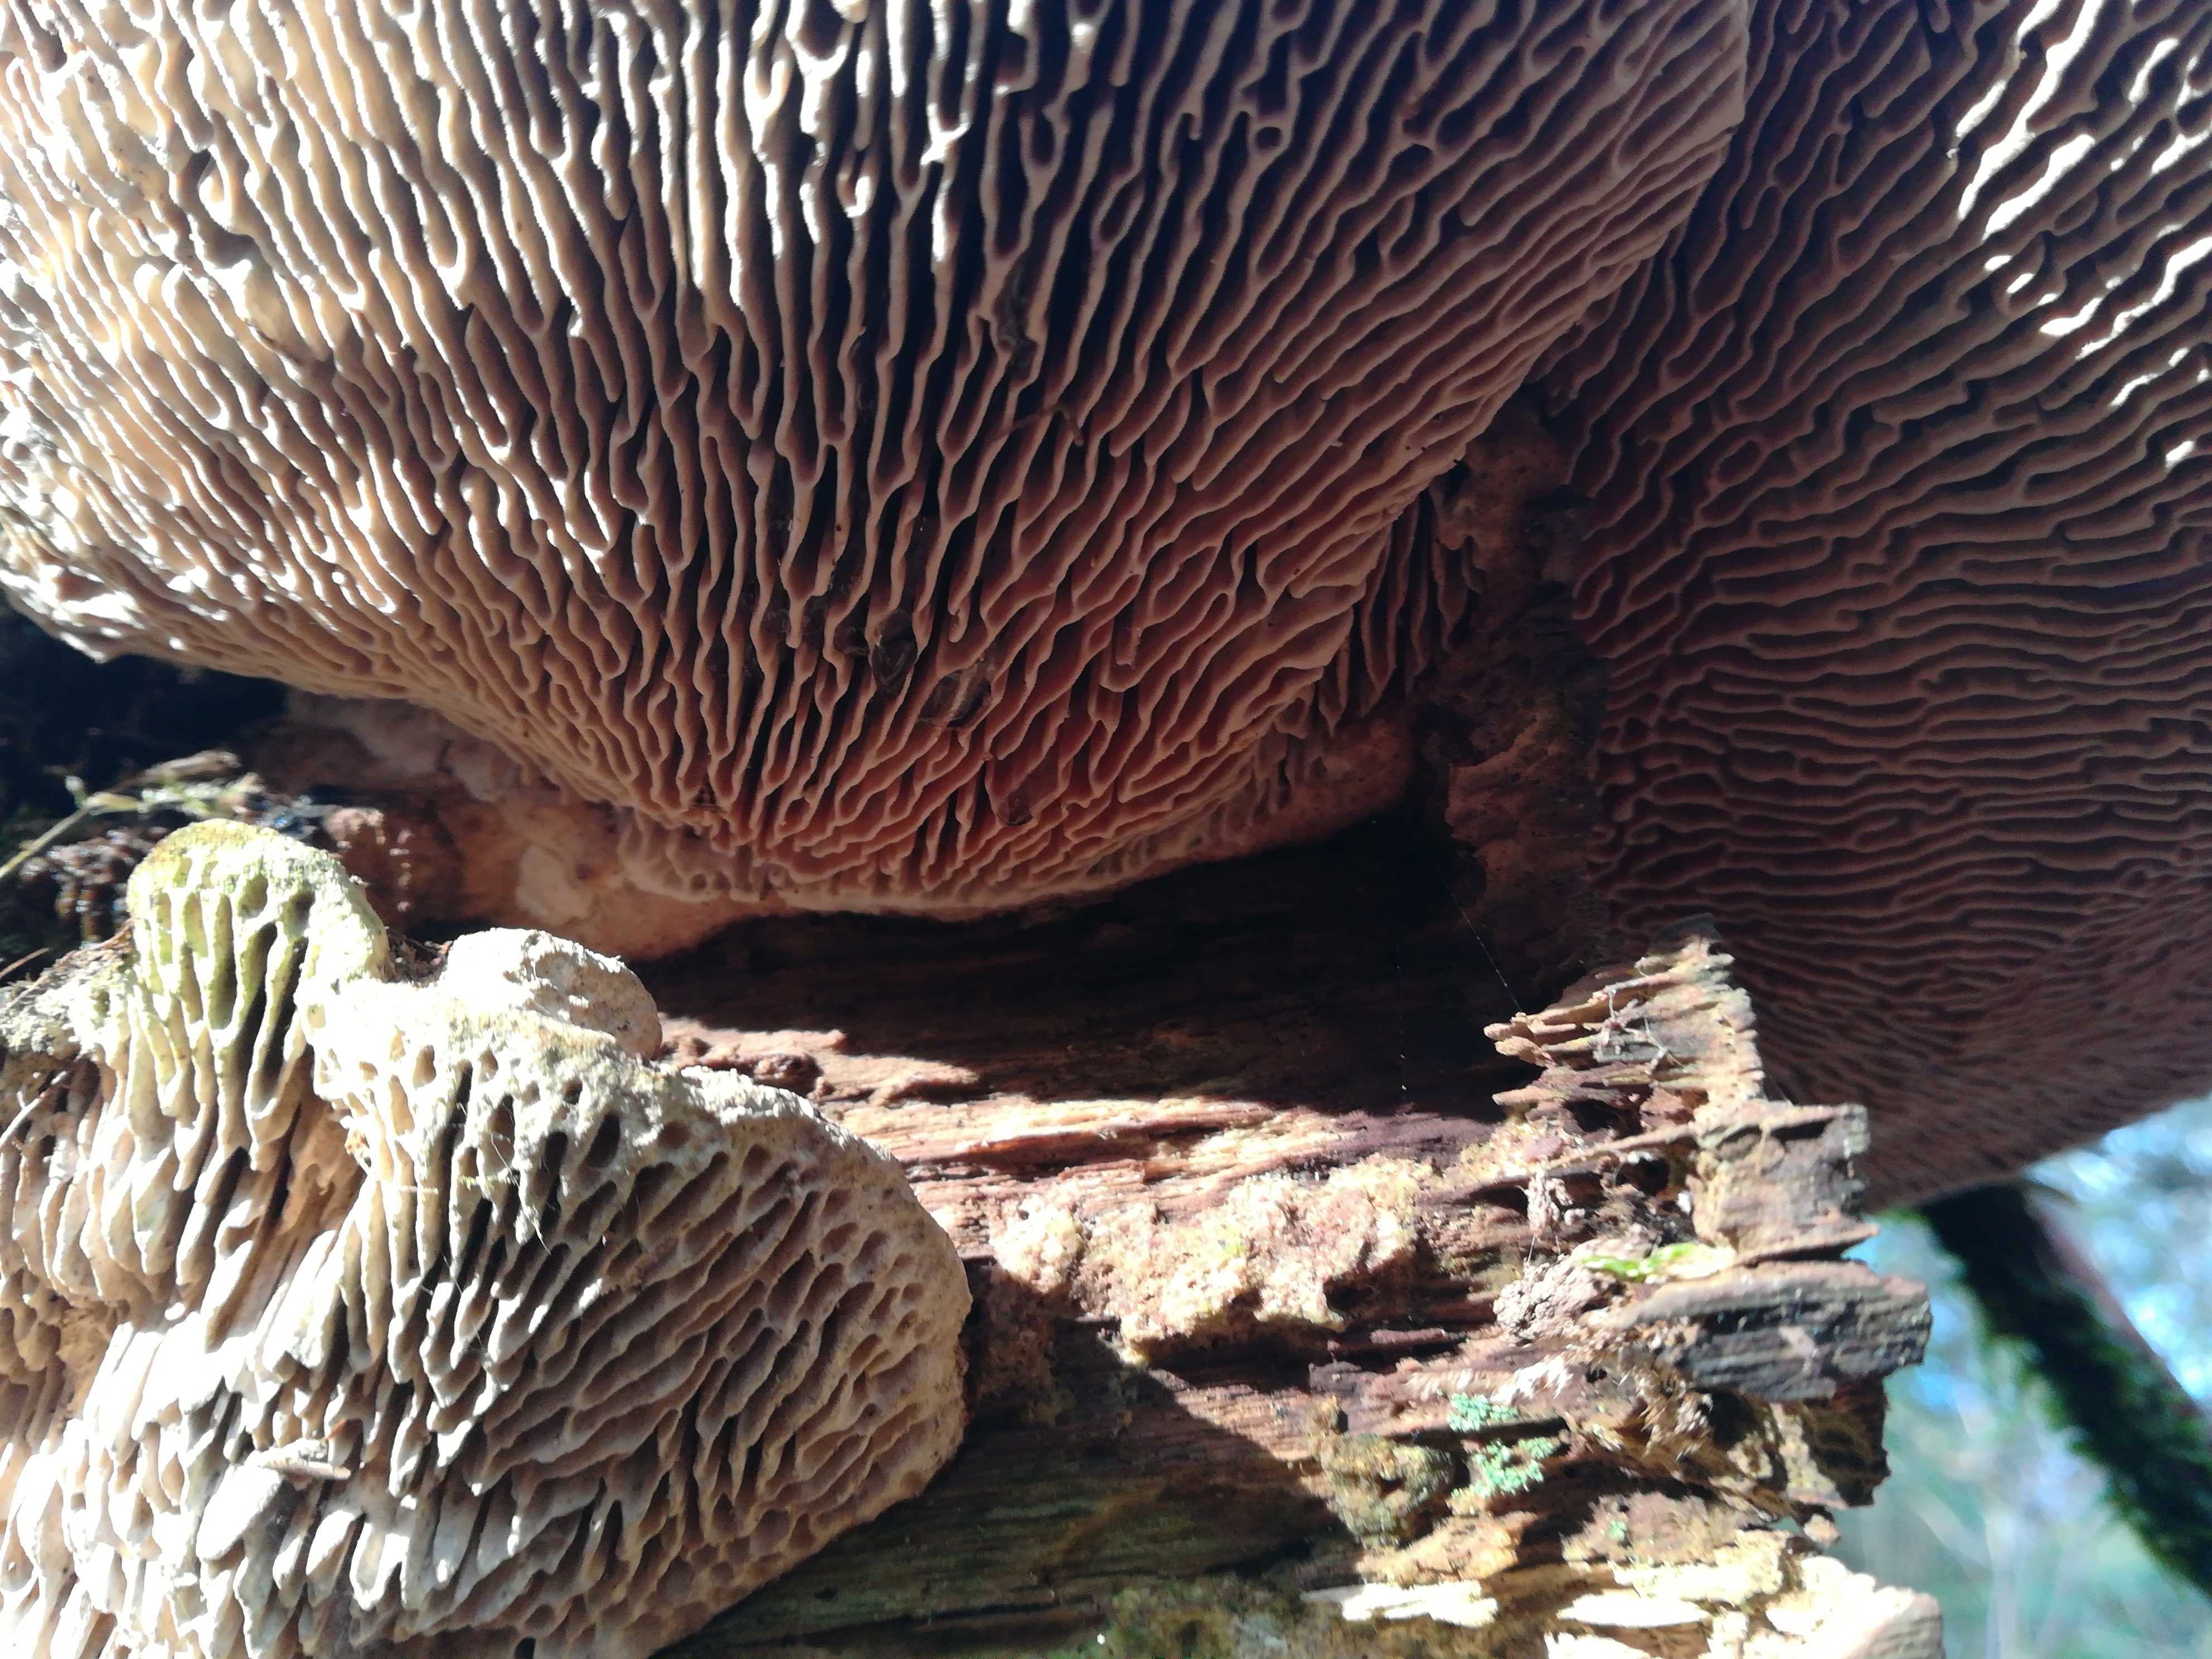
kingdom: Fungi
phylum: Basidiomycota
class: Agaricomycetes
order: Polyporales
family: Fomitopsidaceae
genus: Daedalea
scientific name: Daedalea quercina
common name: ege-labyrintsvamp
